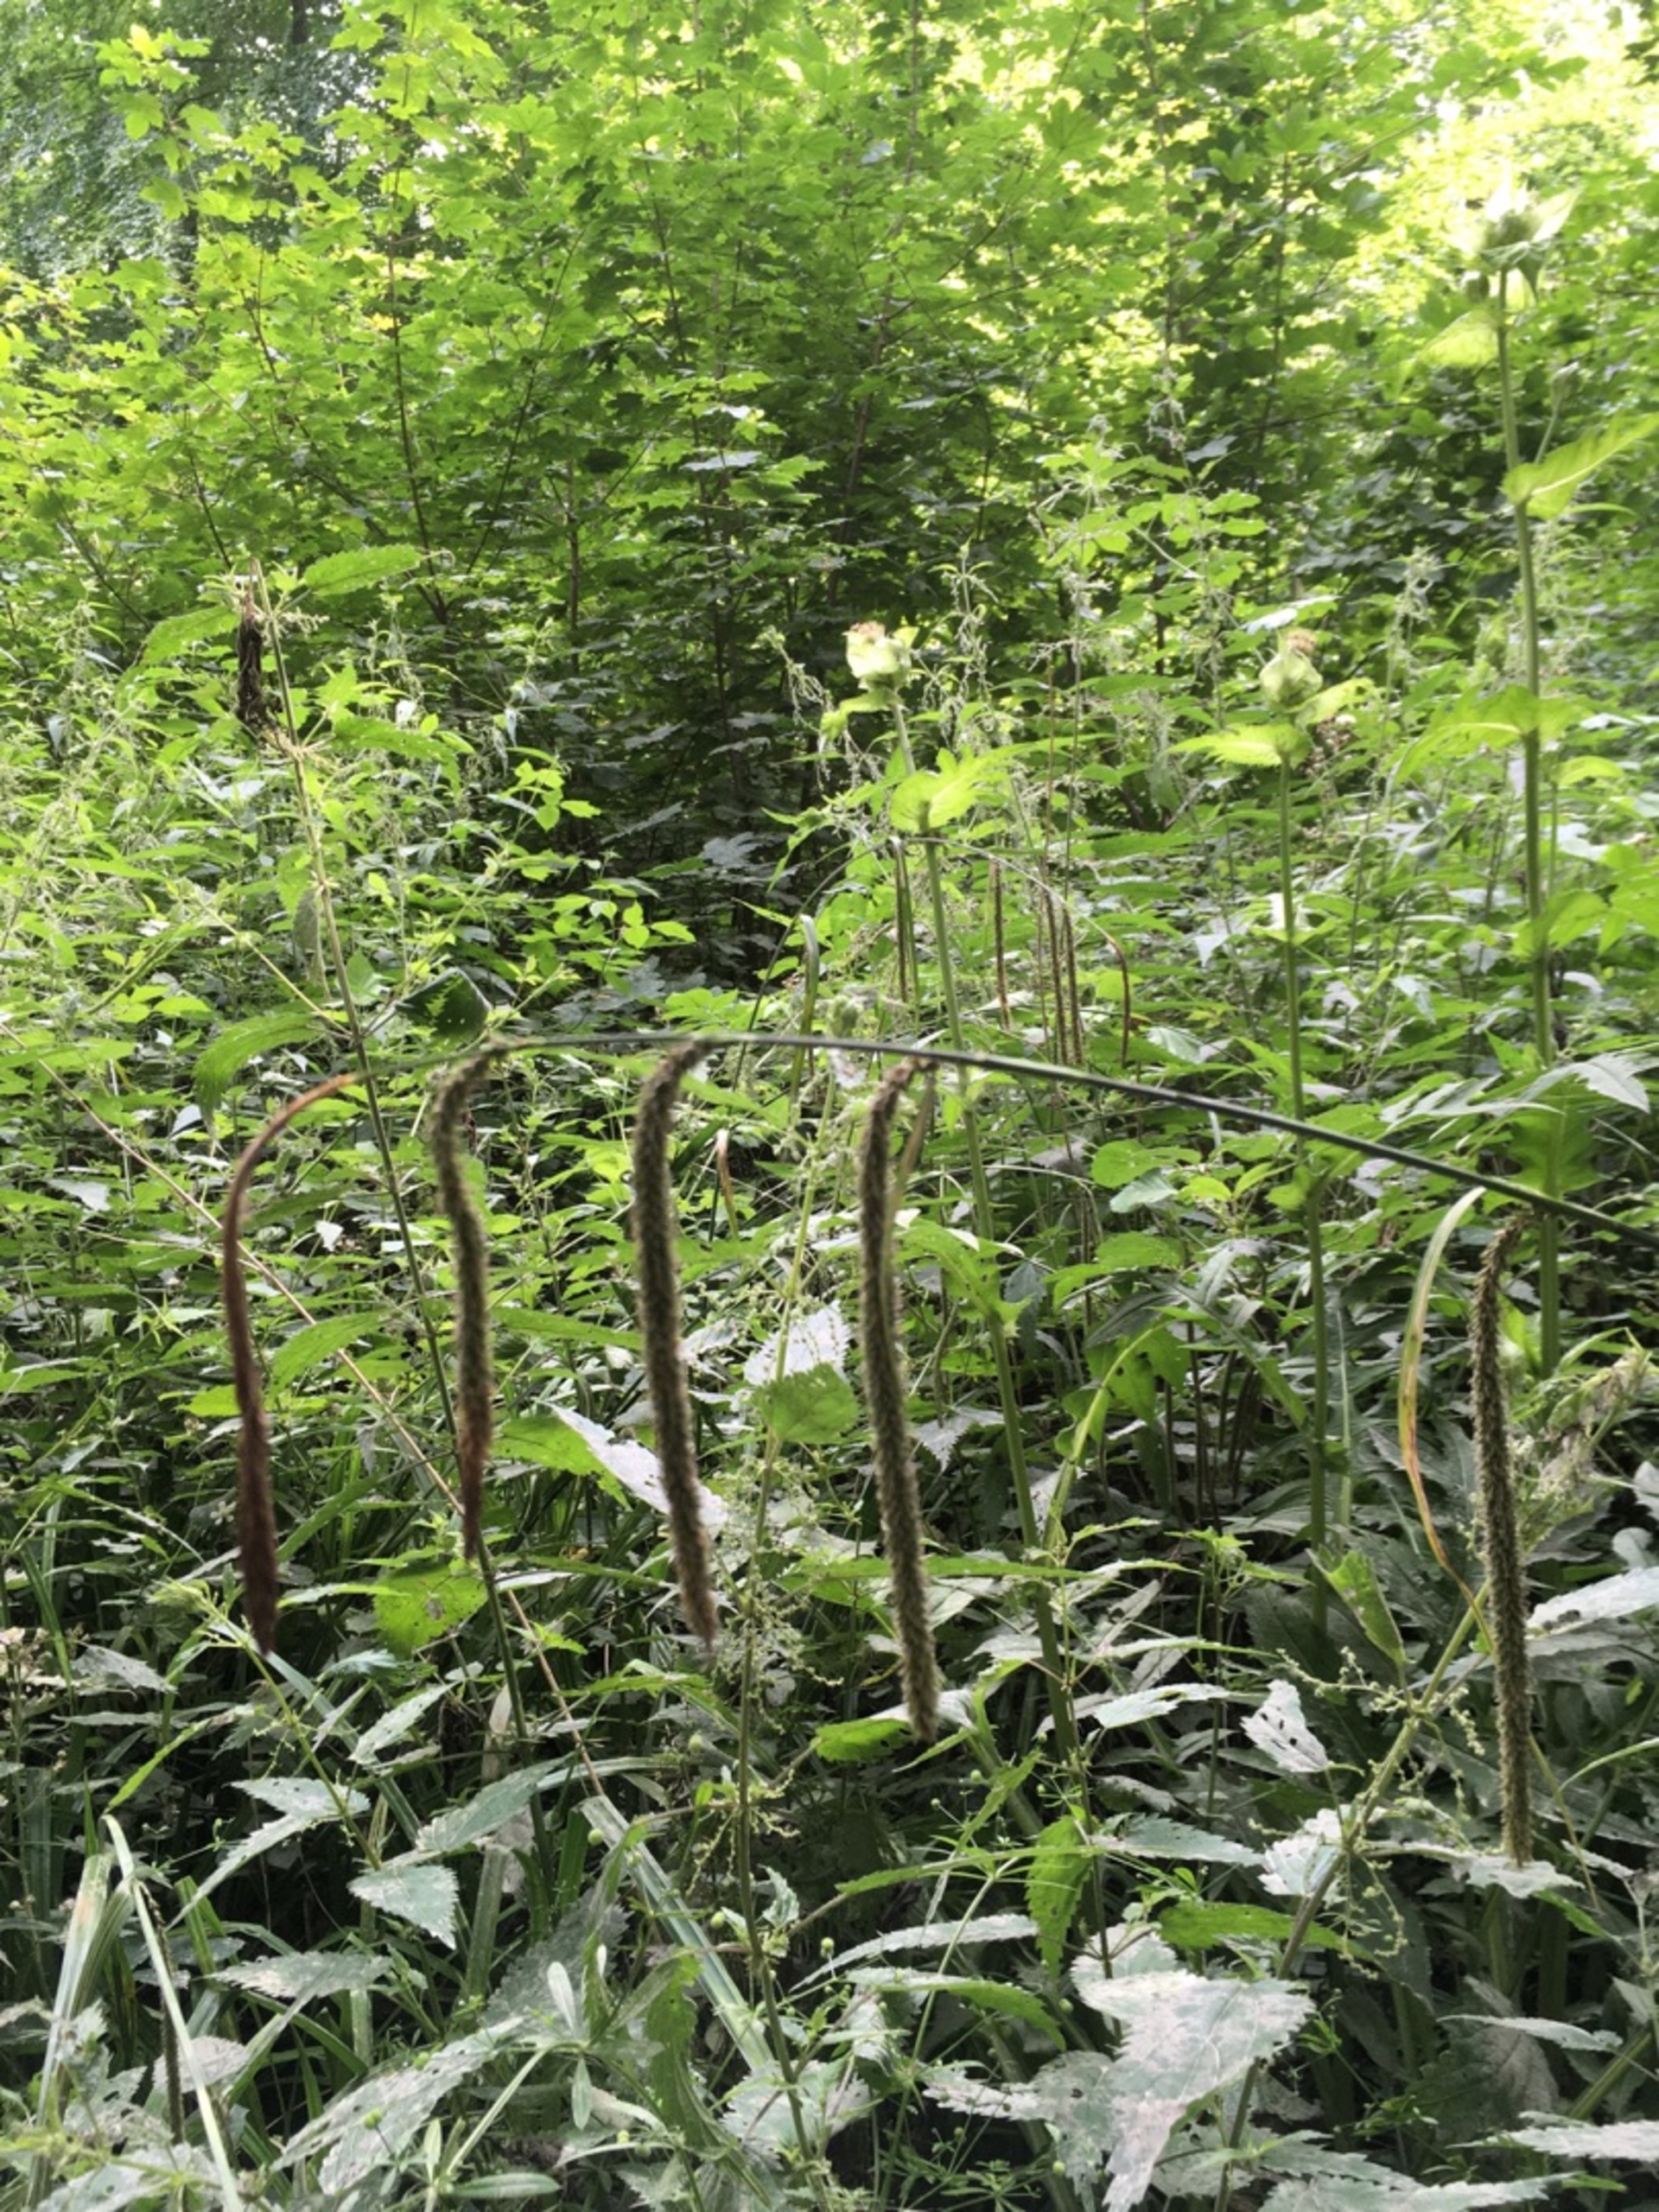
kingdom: Plantae
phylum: Tracheophyta
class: Liliopsida
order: Poales
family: Cyperaceae
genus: Carex
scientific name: Carex pendula
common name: Kæmpe-star
